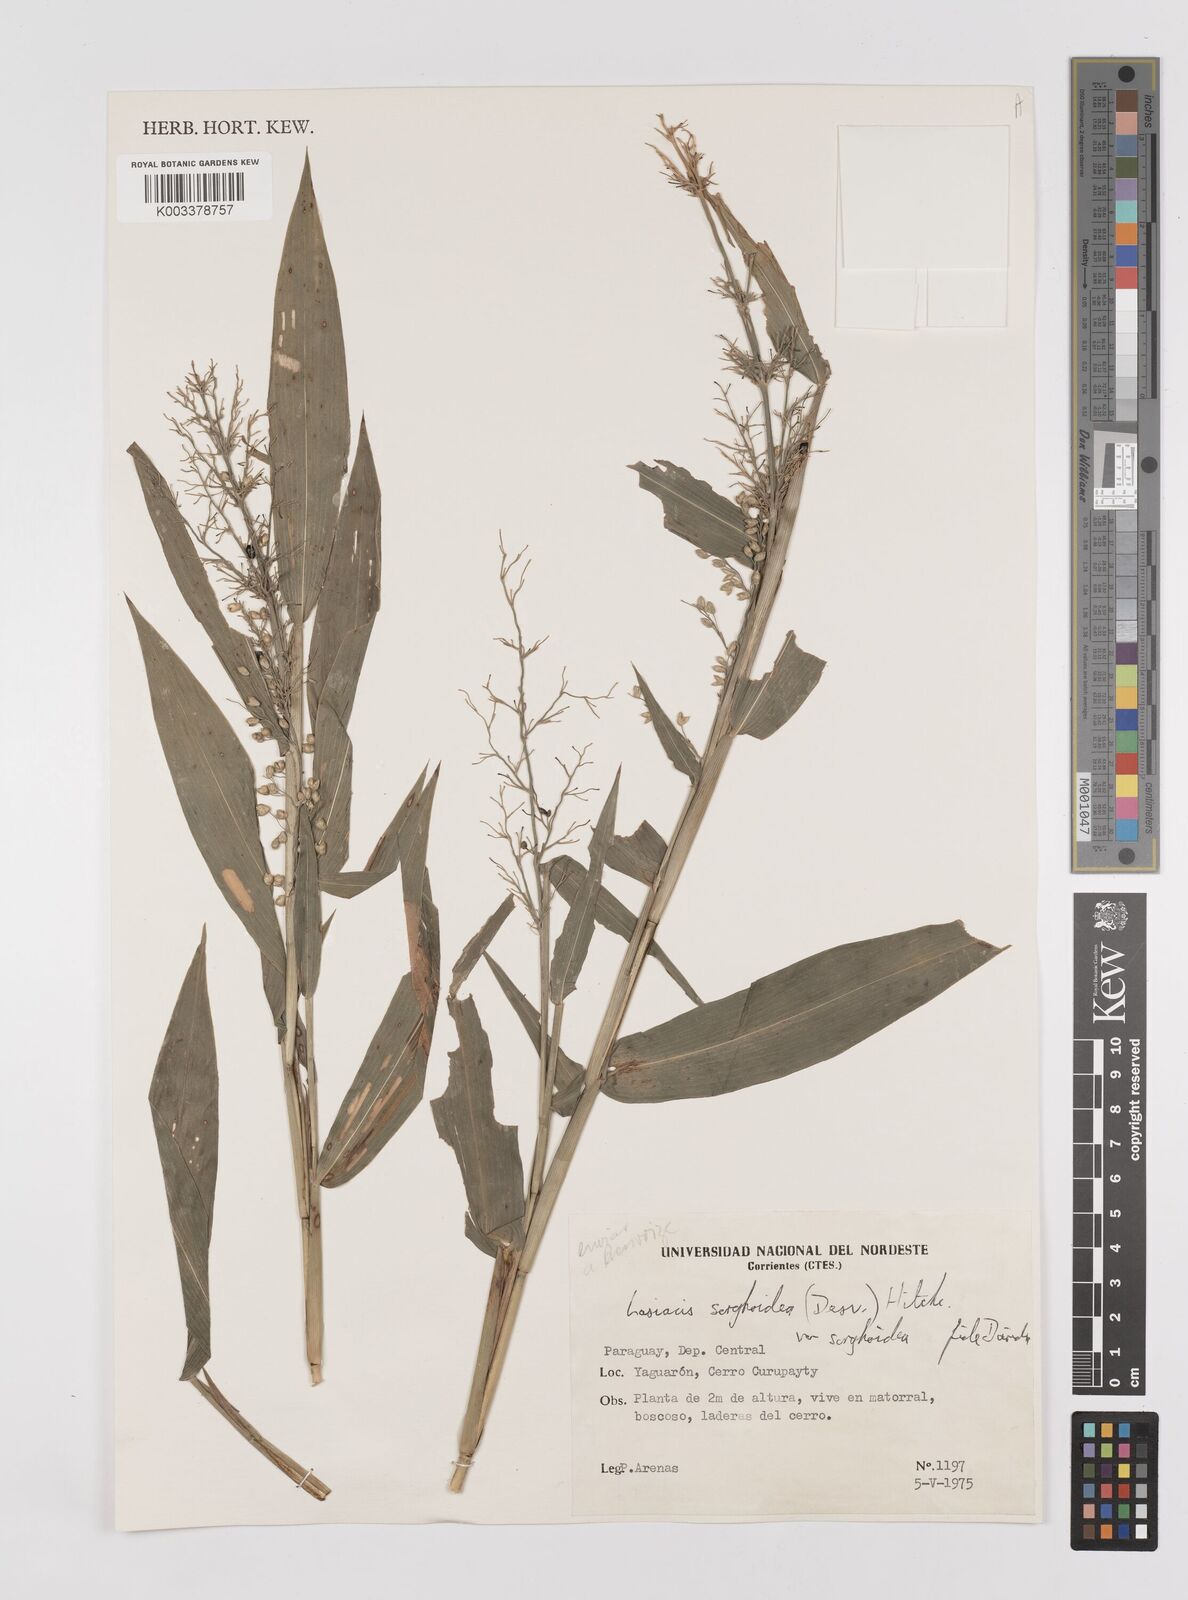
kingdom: Plantae
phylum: Tracheophyta
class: Liliopsida
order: Poales
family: Poaceae
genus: Lasiacis
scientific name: Lasiacis maculata
